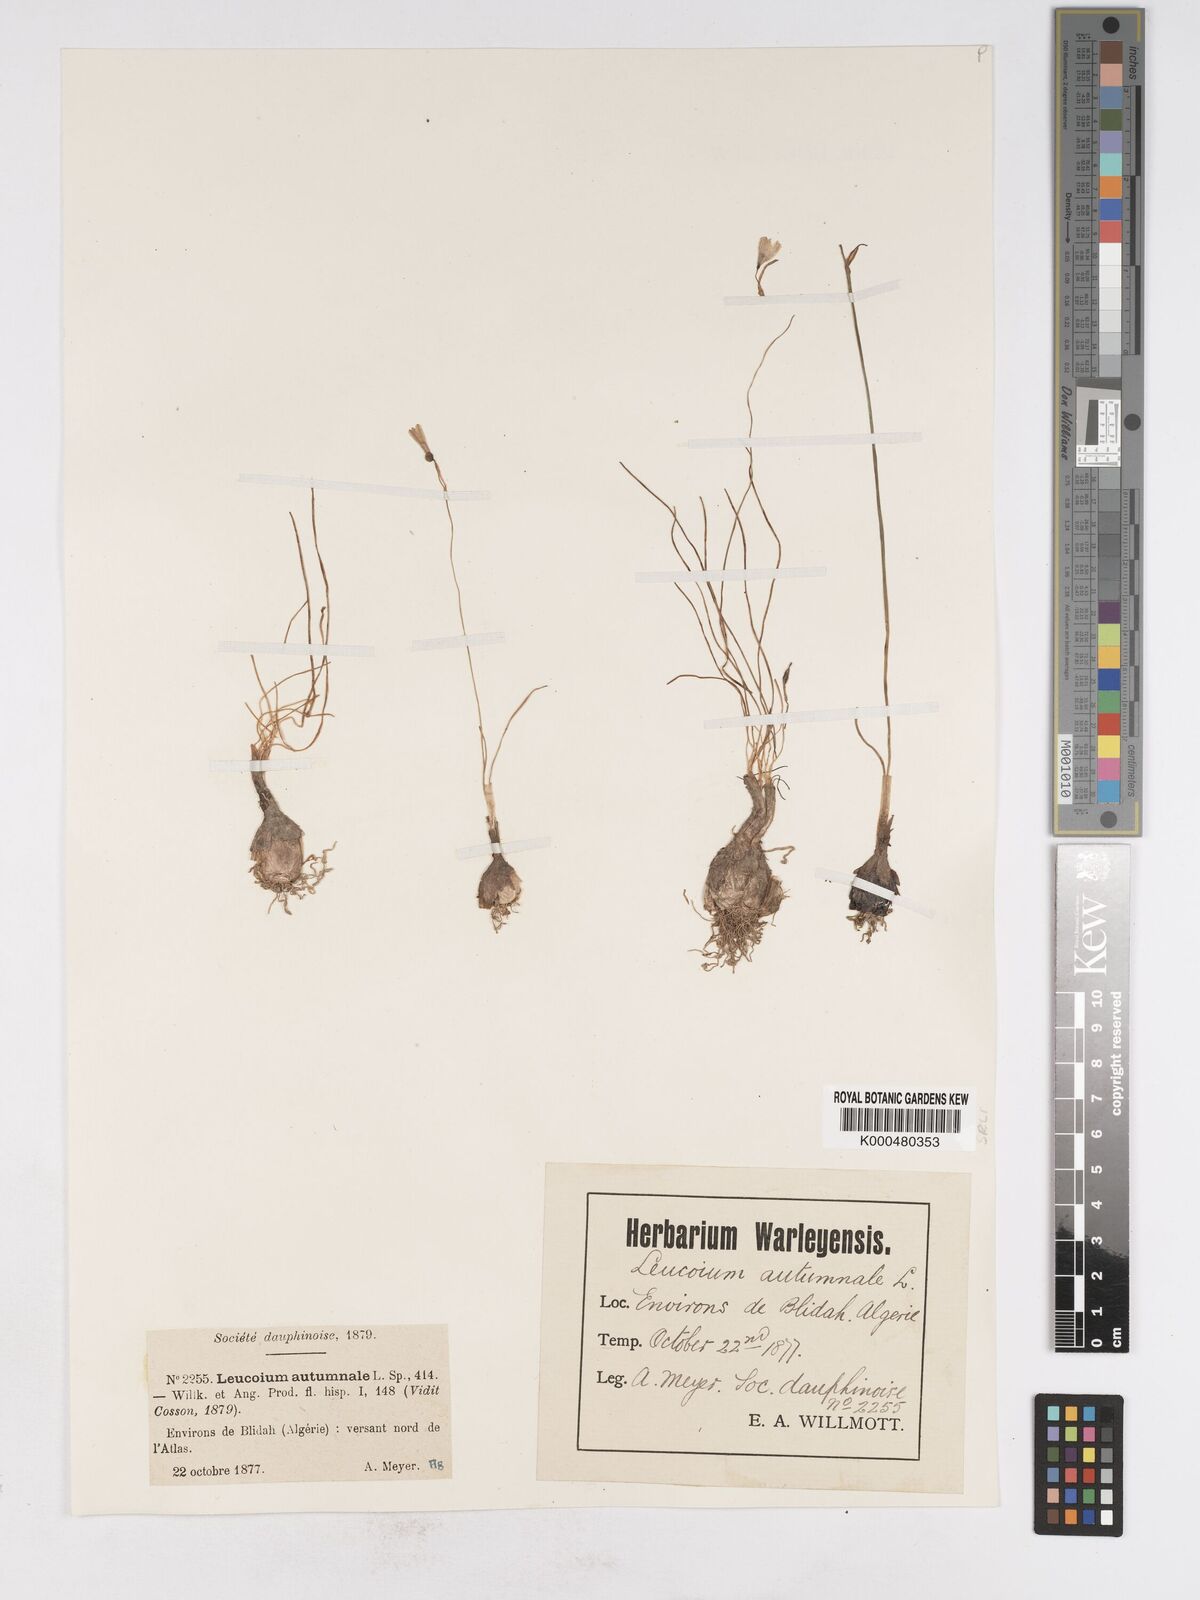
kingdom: Plantae
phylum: Tracheophyta
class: Liliopsida
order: Asparagales
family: Amaryllidaceae
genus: Acis
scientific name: Acis autumnalis
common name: Autumn snowflake
